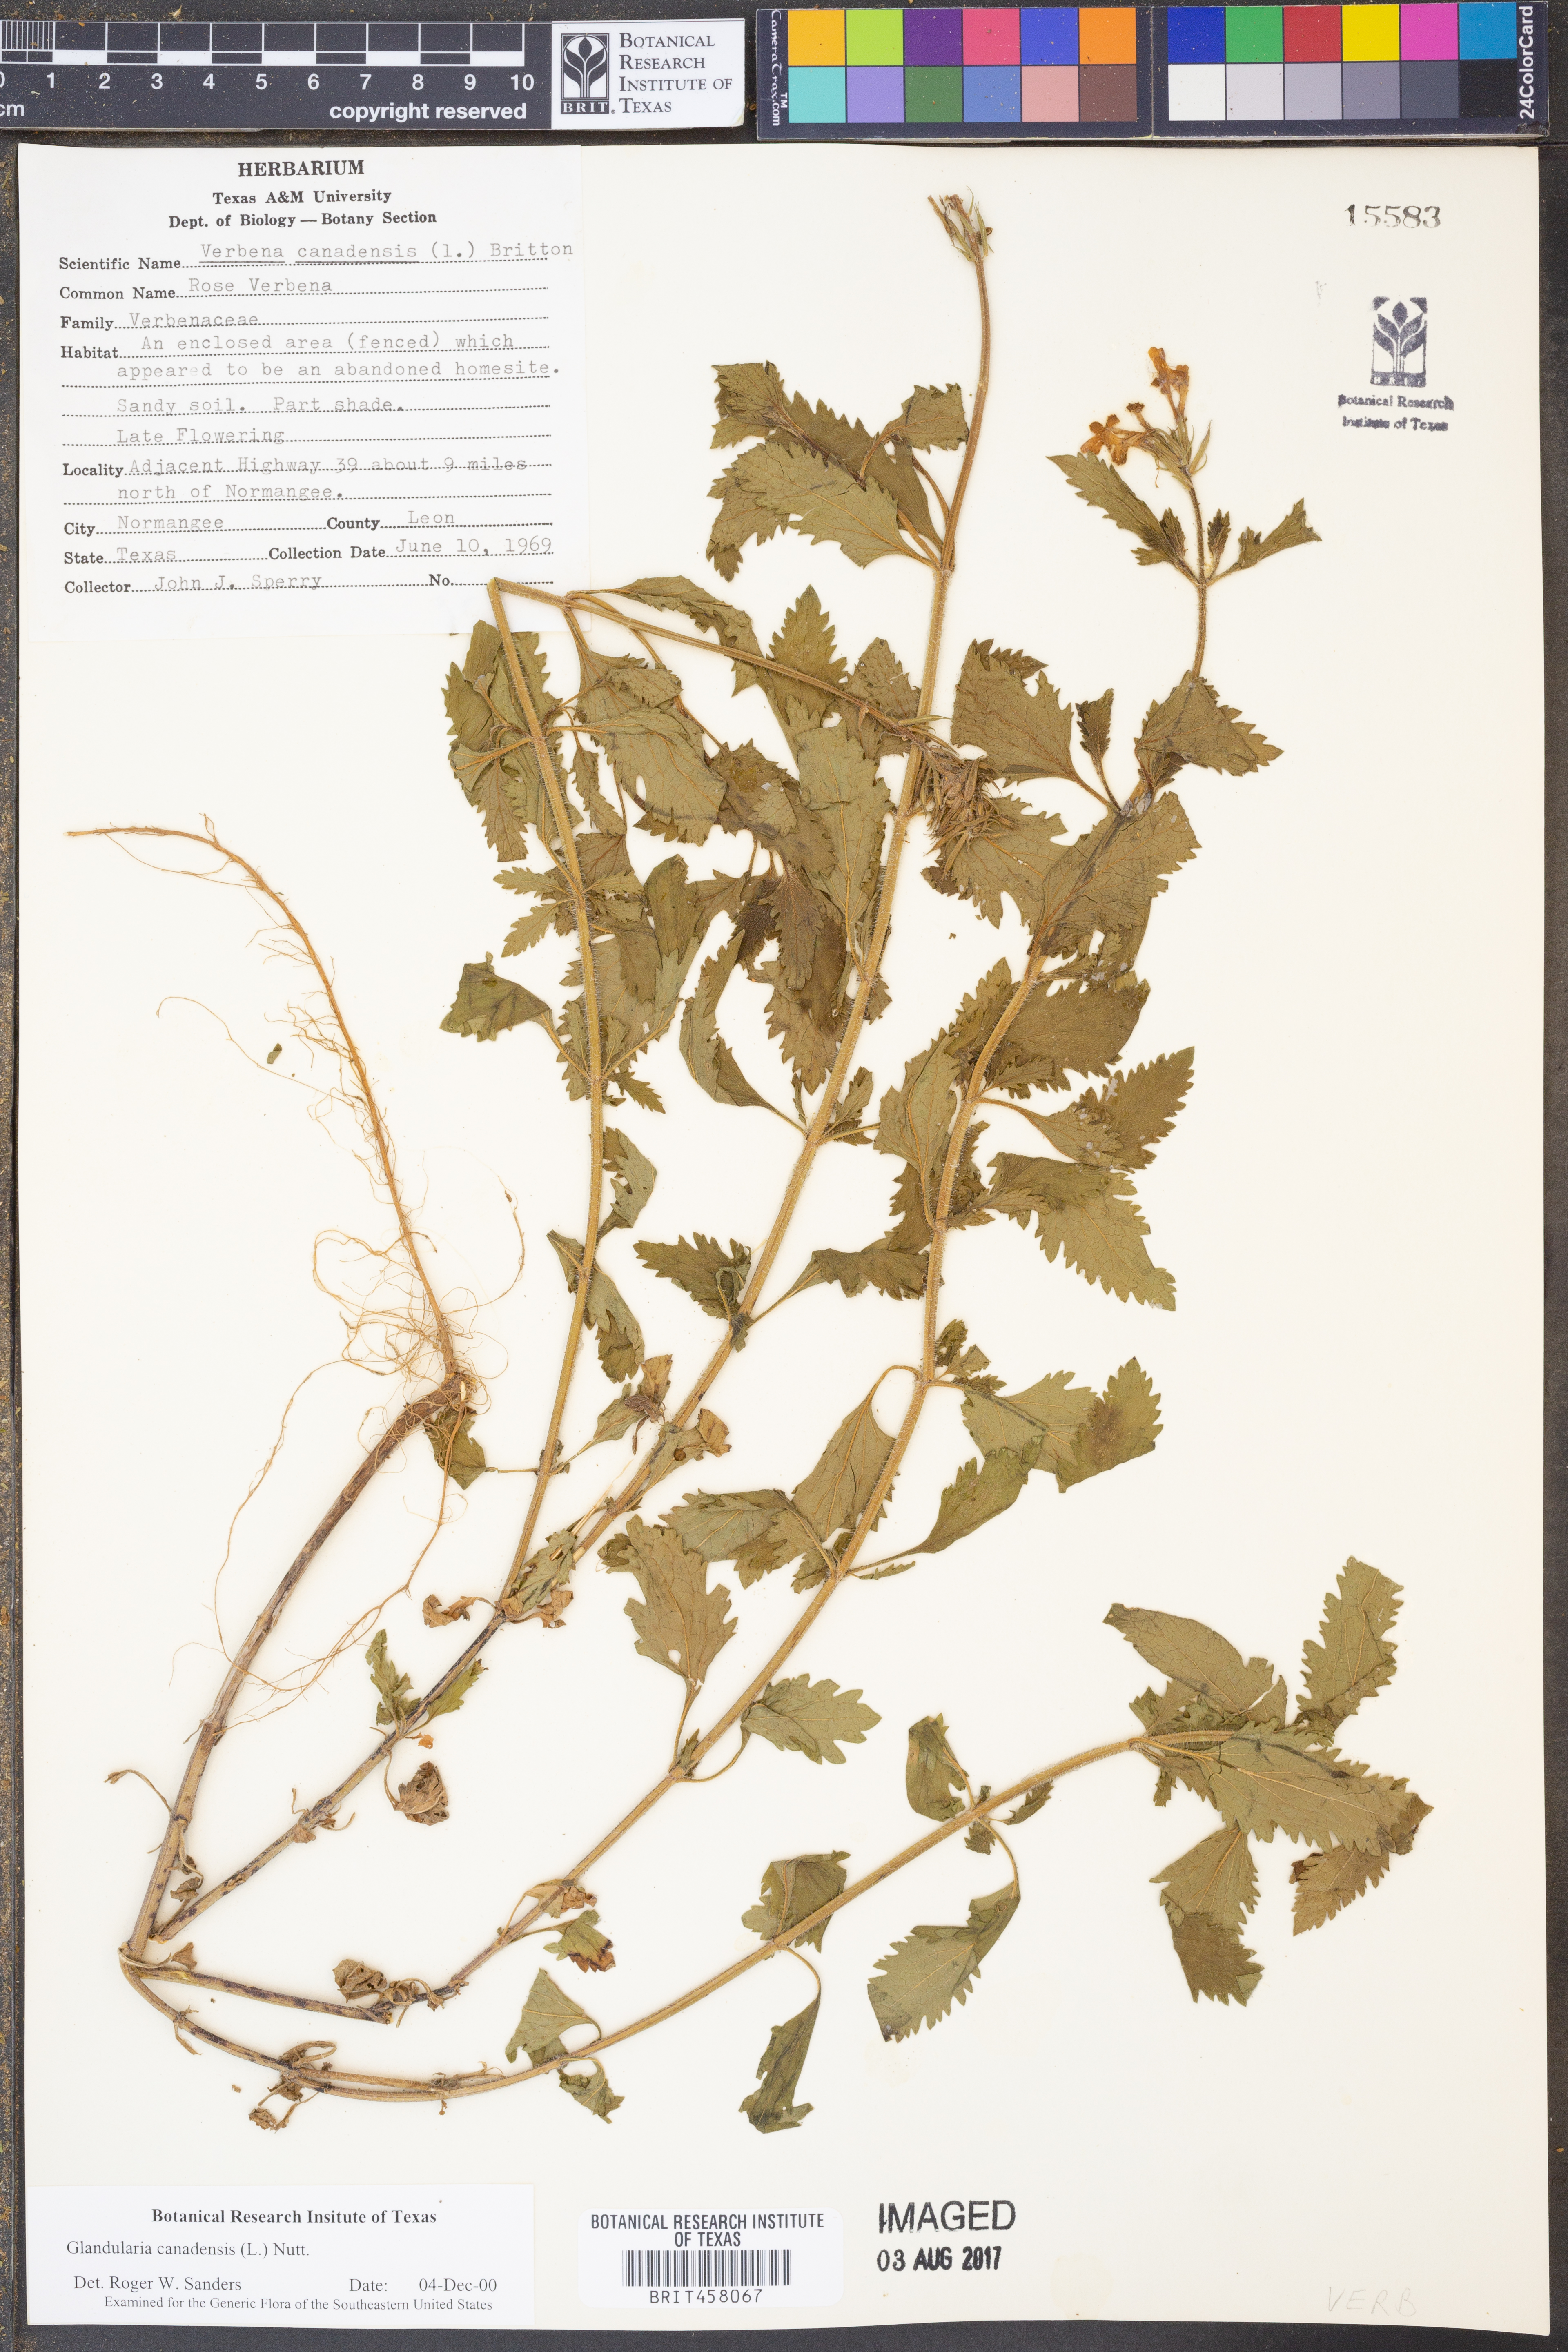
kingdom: Plantae
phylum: Tracheophyta
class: Magnoliopsida
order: Lamiales
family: Verbenaceae
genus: Verbena
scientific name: Verbena canadensis
